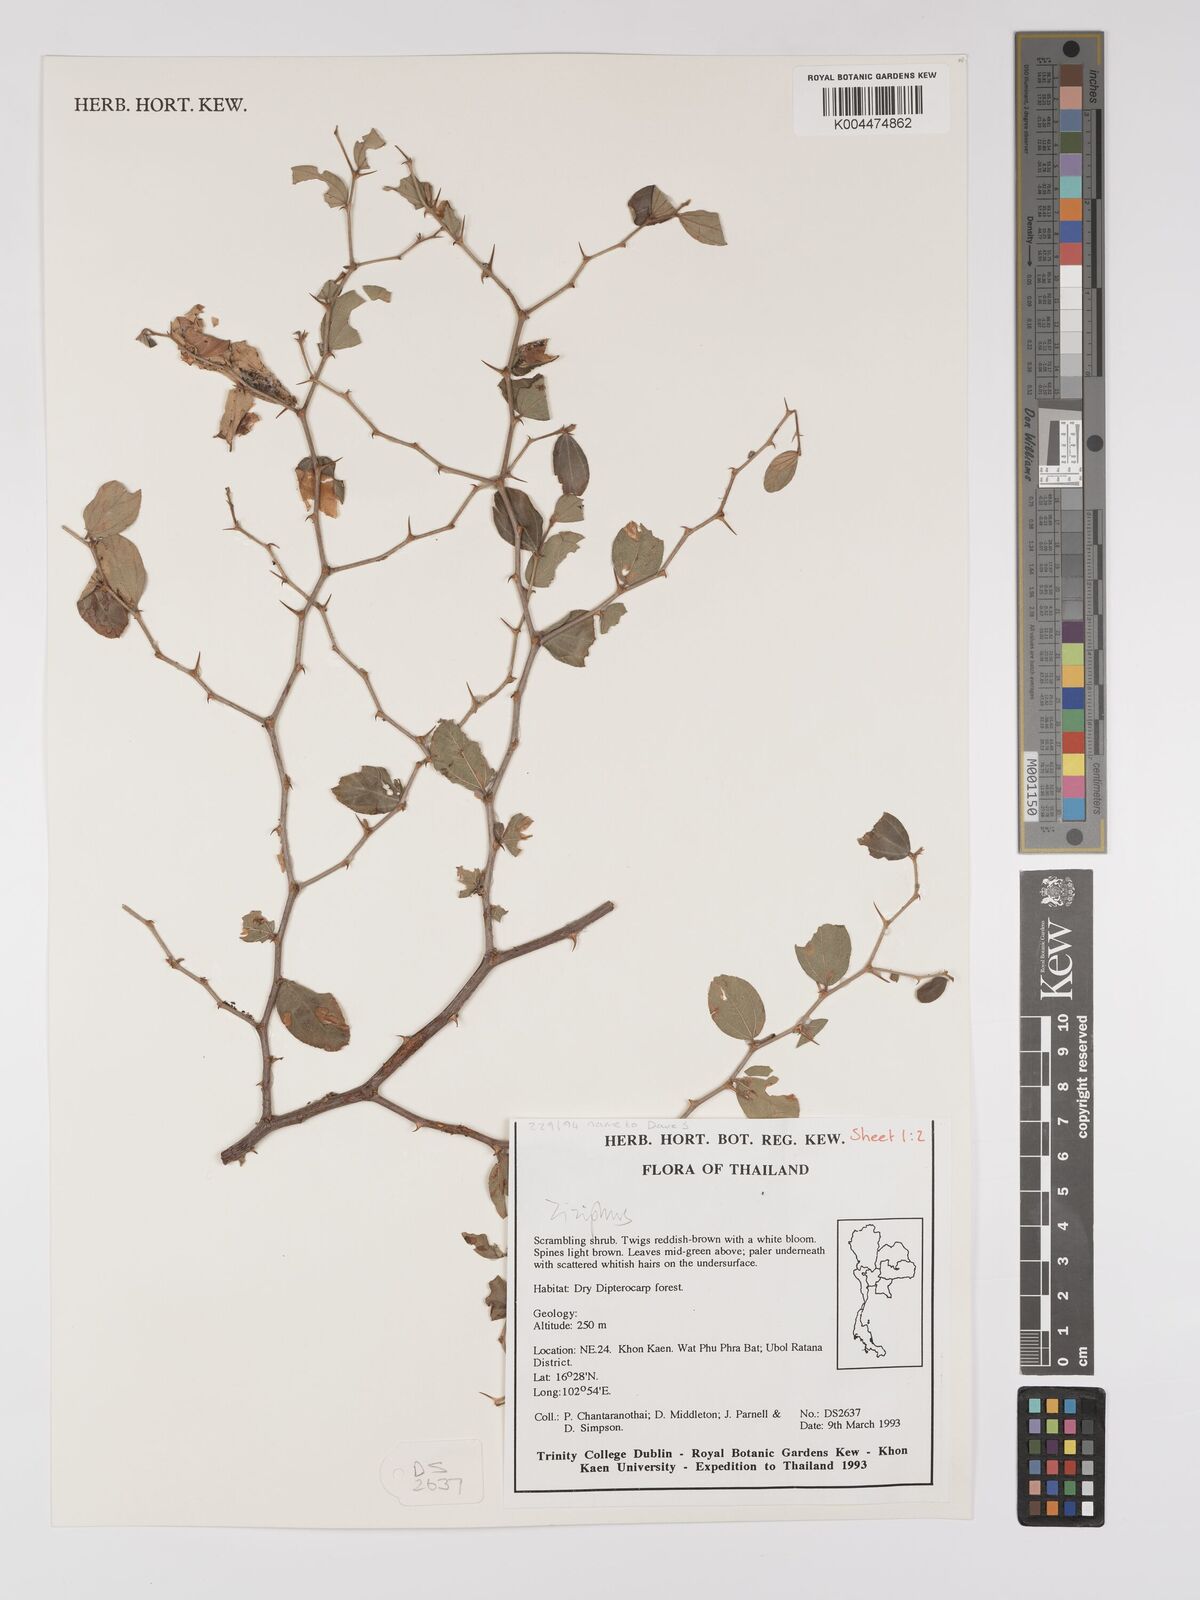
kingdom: Plantae
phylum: Tracheophyta
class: Magnoliopsida
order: Rosales
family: Rhamnaceae
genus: Ziziphus
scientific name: Ziziphus
